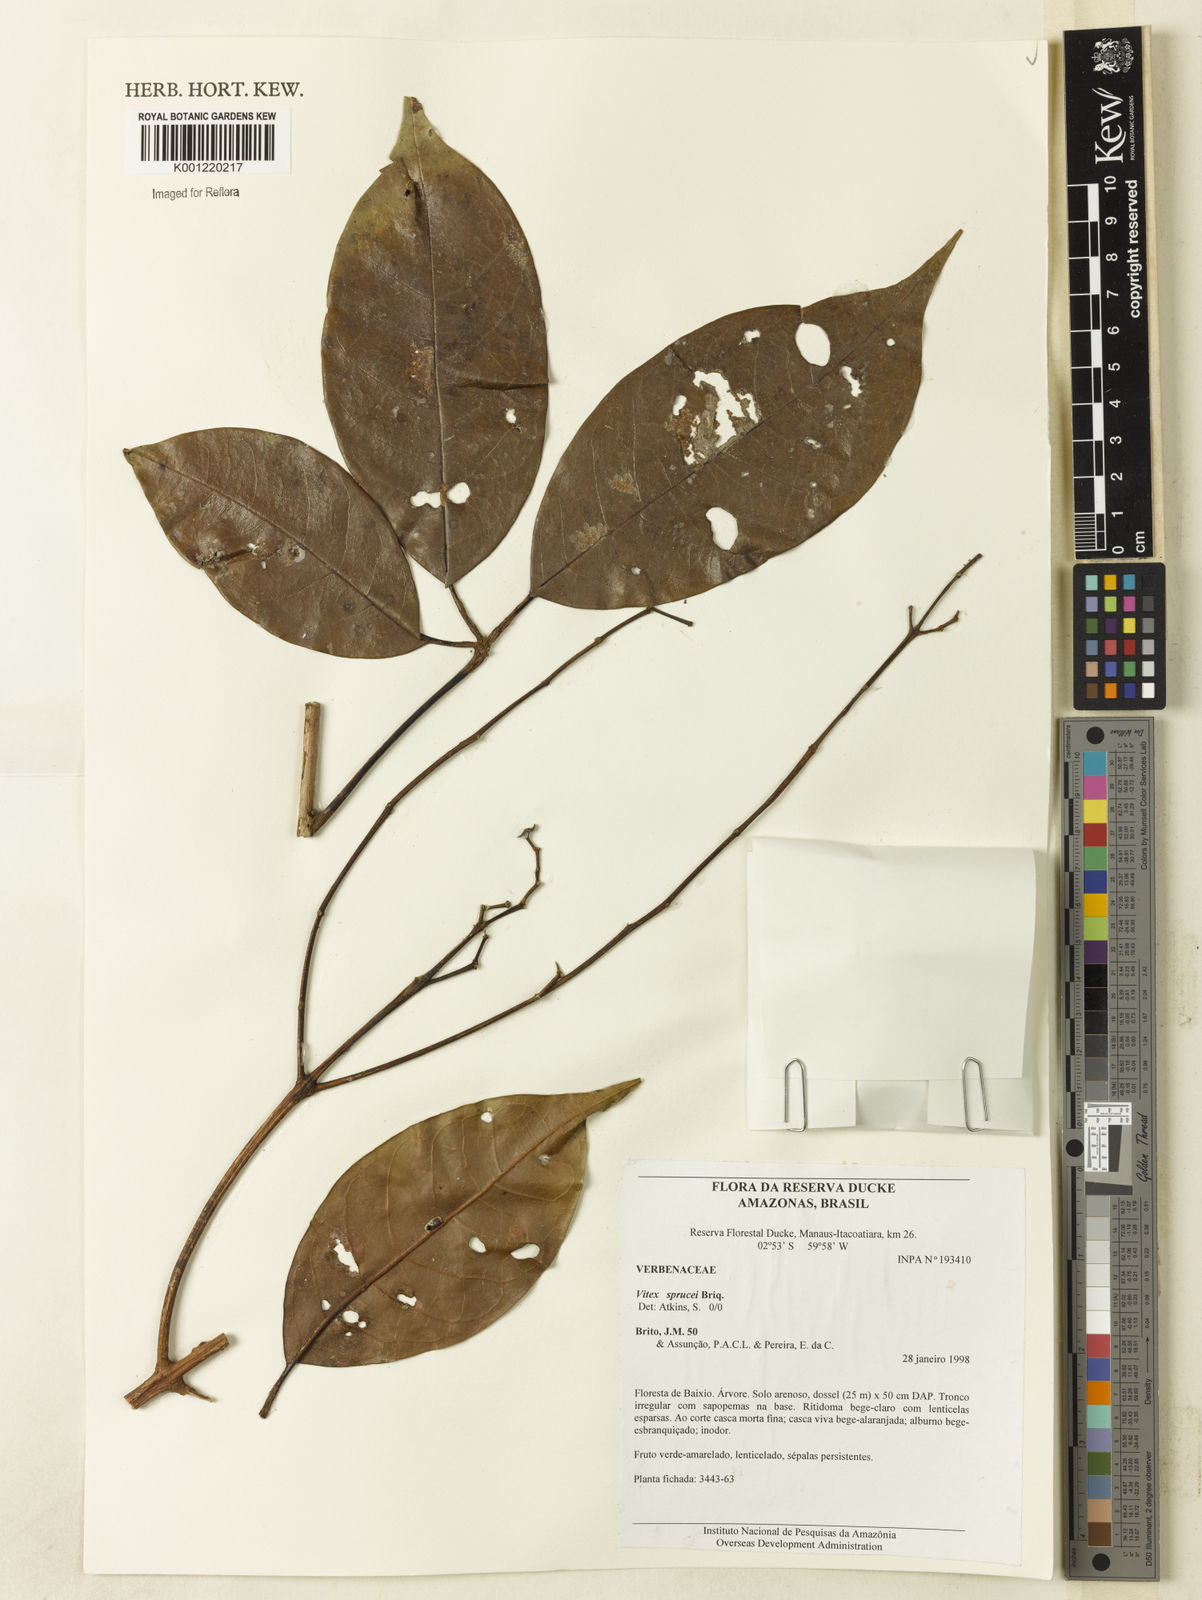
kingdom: Plantae
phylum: Tracheophyta
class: Magnoliopsida
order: Lamiales
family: Lamiaceae
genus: Vitex
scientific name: Vitex sprucei
